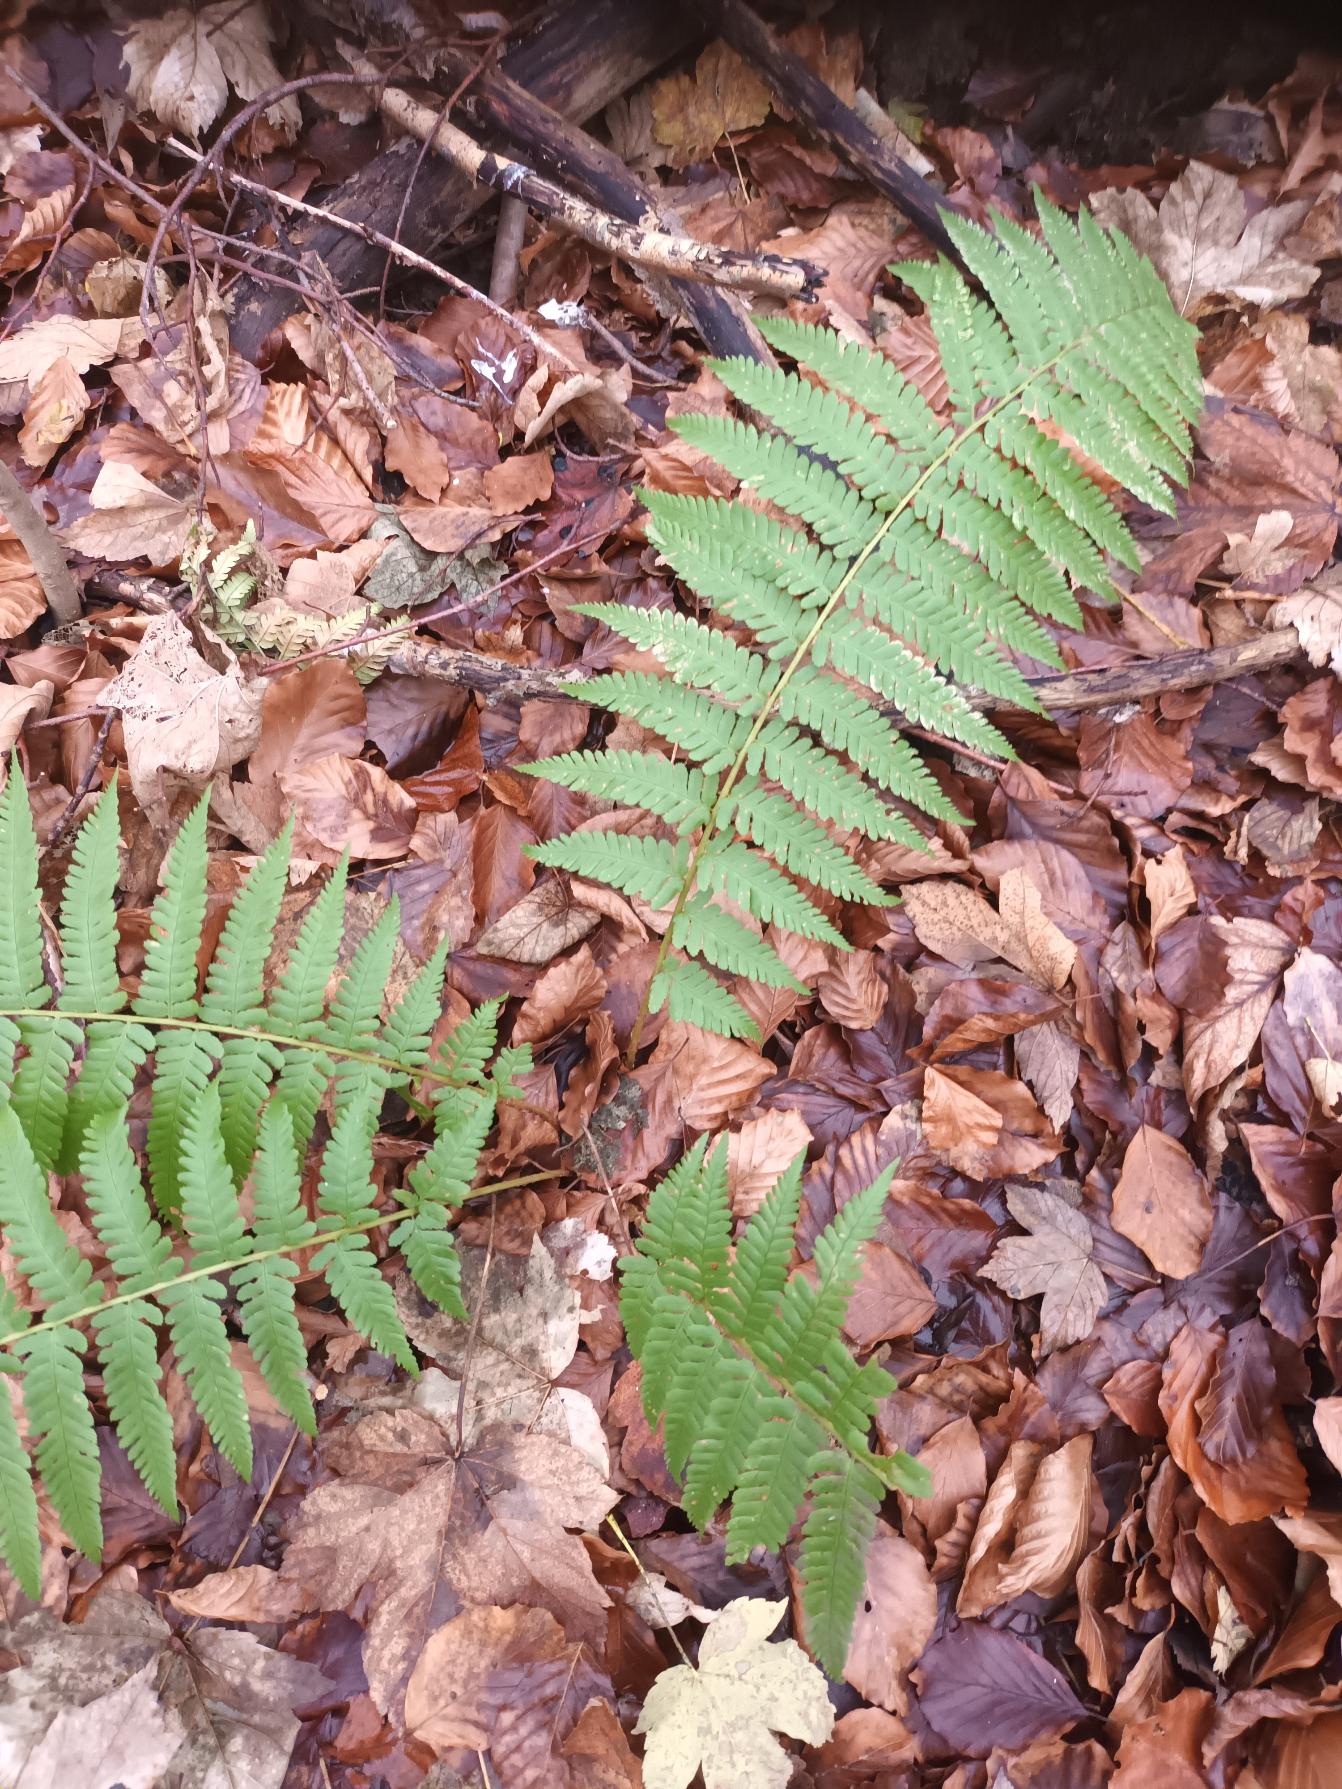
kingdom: Plantae
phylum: Tracheophyta
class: Polypodiopsida
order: Polypodiales
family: Dryopteridaceae
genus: Dryopteris
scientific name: Dryopteris filix-mas
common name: Almindelig mangeløv
